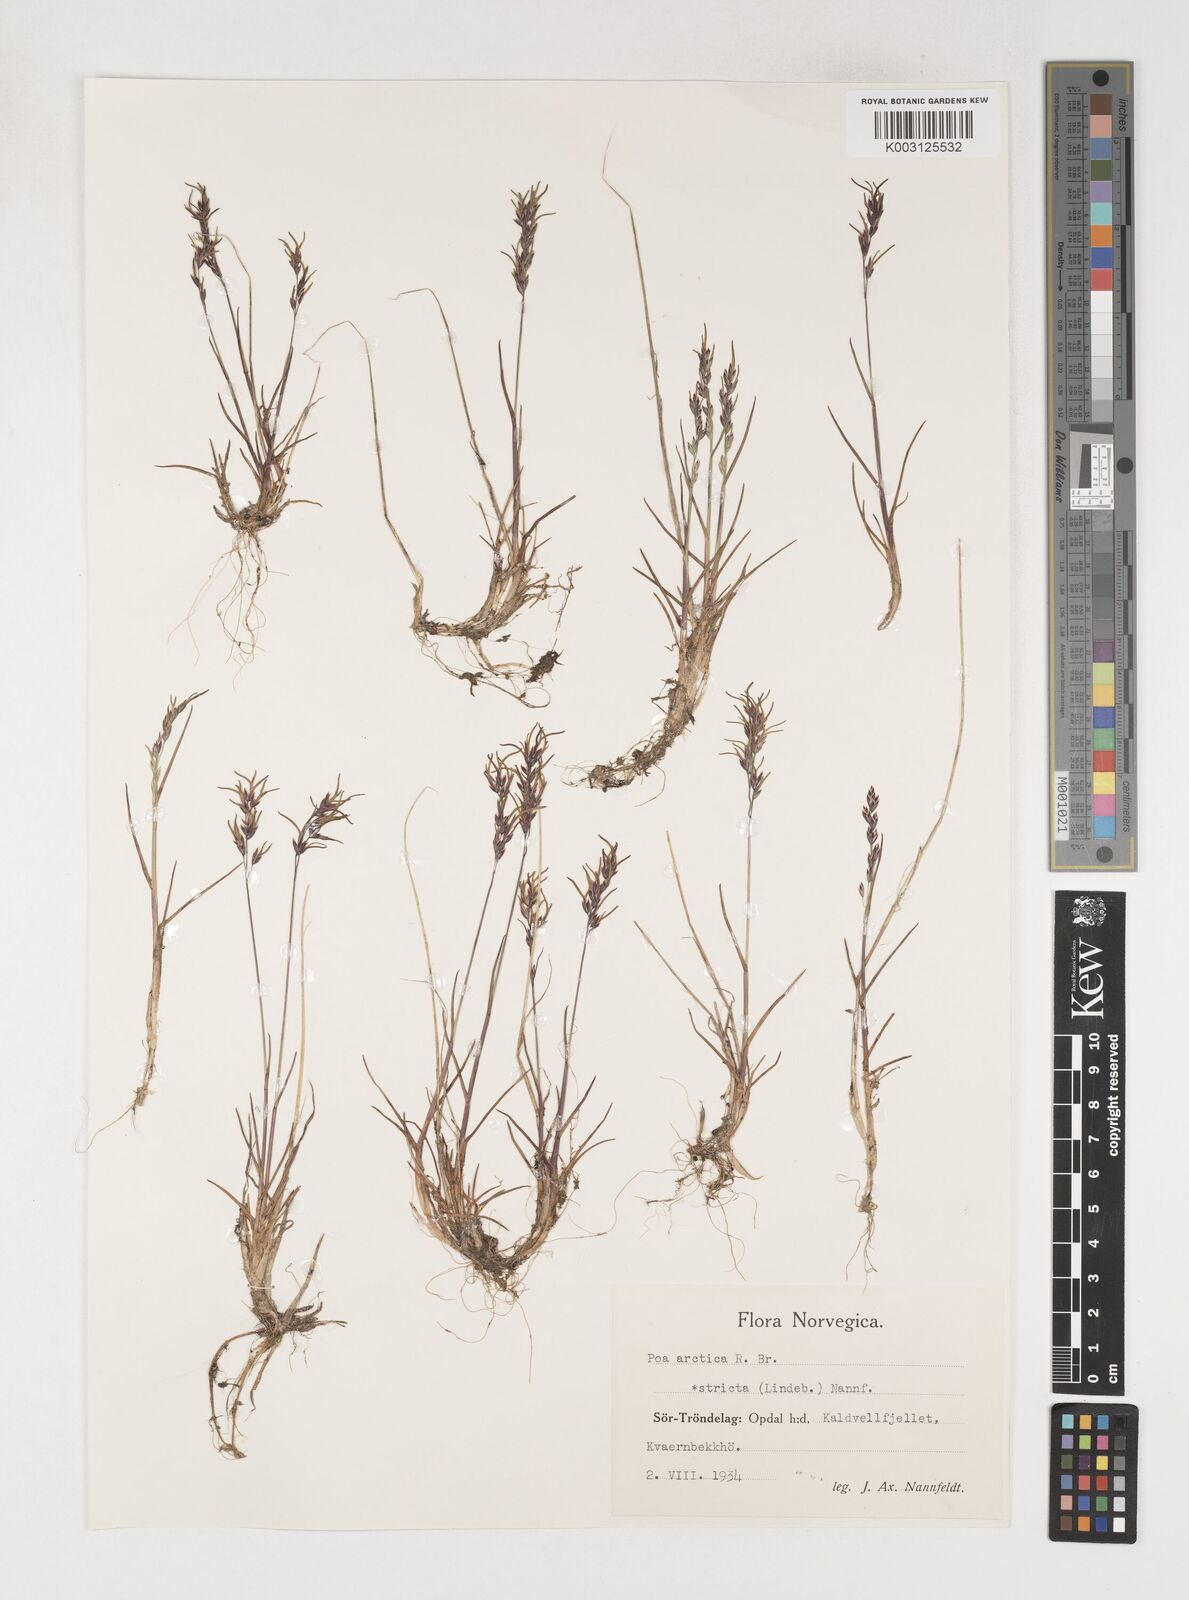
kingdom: Plantae
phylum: Tracheophyta
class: Liliopsida
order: Poales
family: Poaceae
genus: Poa
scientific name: Poa arctica
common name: Arctic bluegrass
